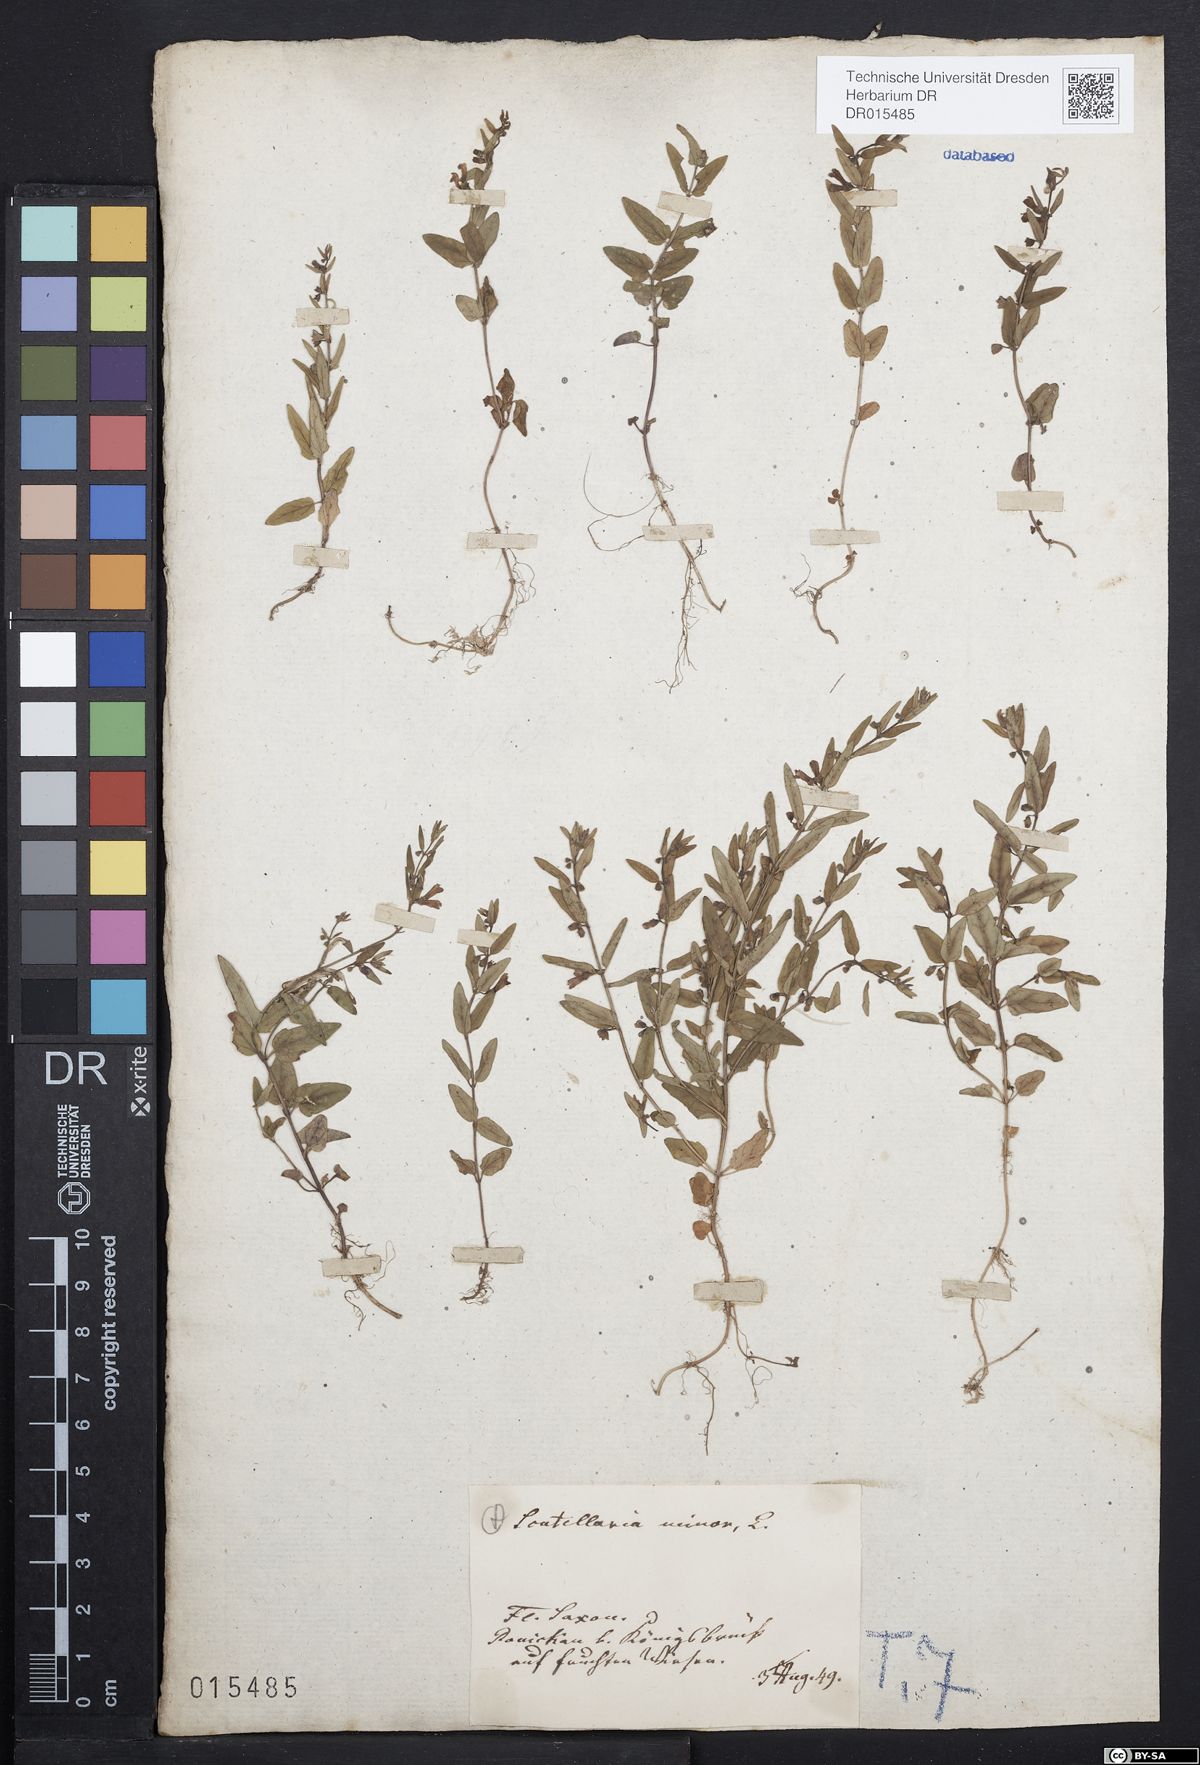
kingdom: Plantae
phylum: Tracheophyta
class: Magnoliopsida
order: Lamiales
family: Lamiaceae
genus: Scutellaria
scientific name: Scutellaria minor
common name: Lesser skullcap
